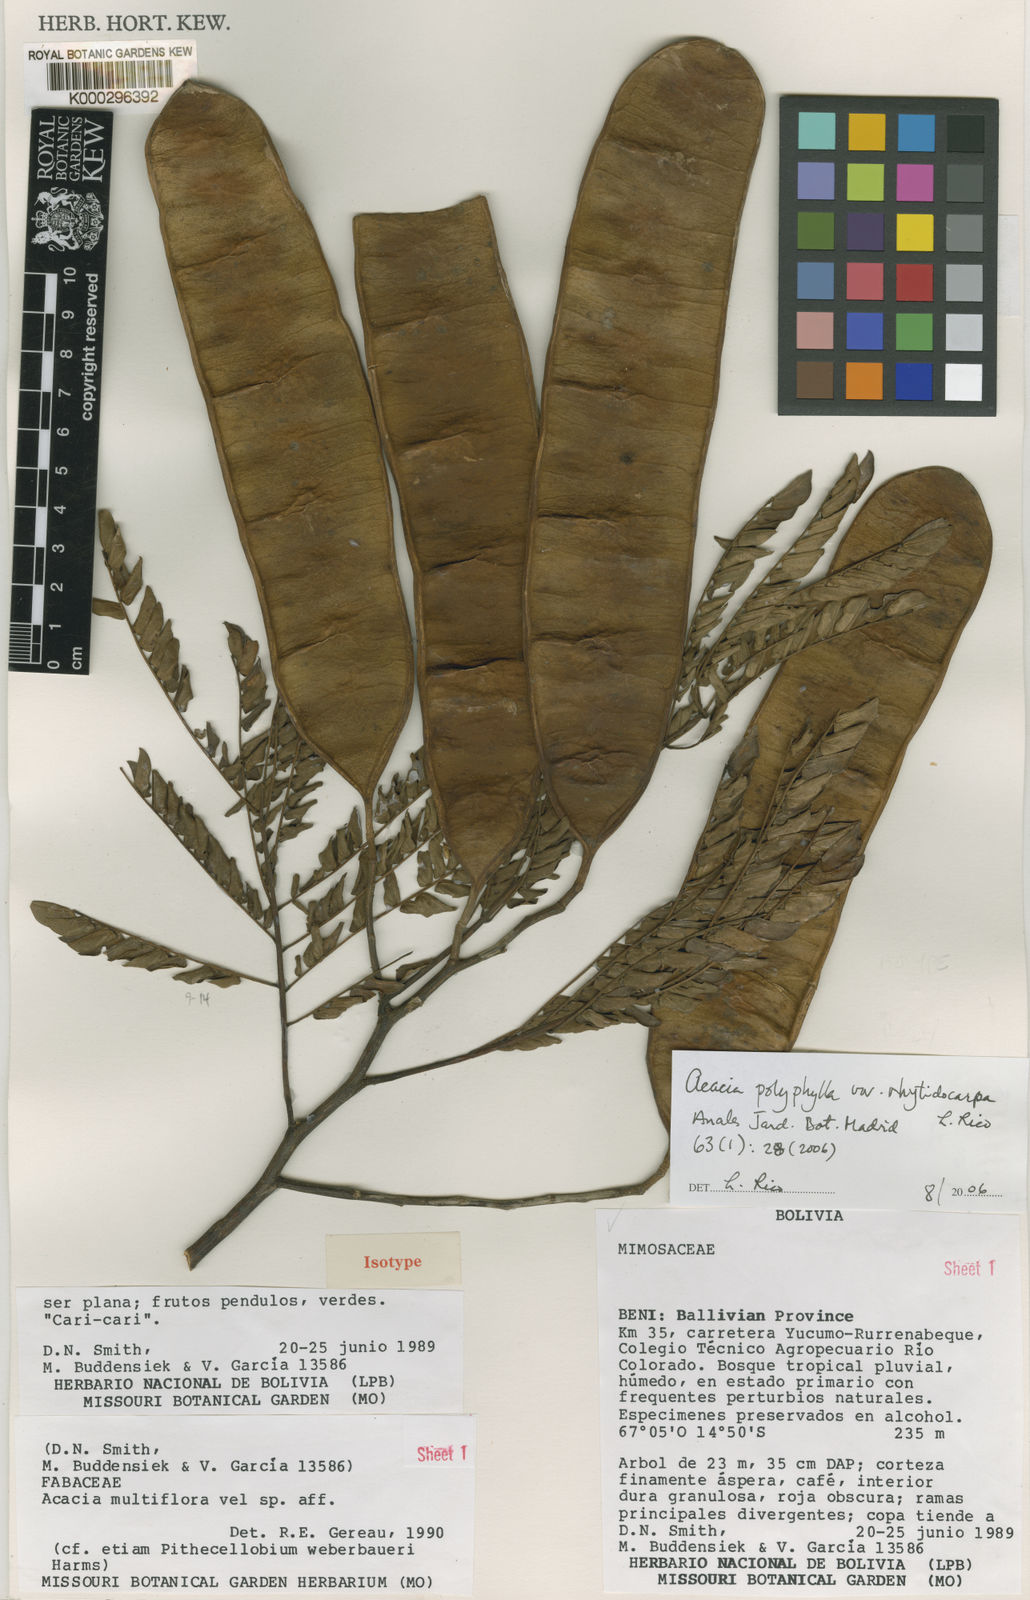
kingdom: Plantae
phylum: Tracheophyta
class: Magnoliopsida
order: Fabales
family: Fabaceae
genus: Senegalia
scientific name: Senegalia rhytidocarpa
